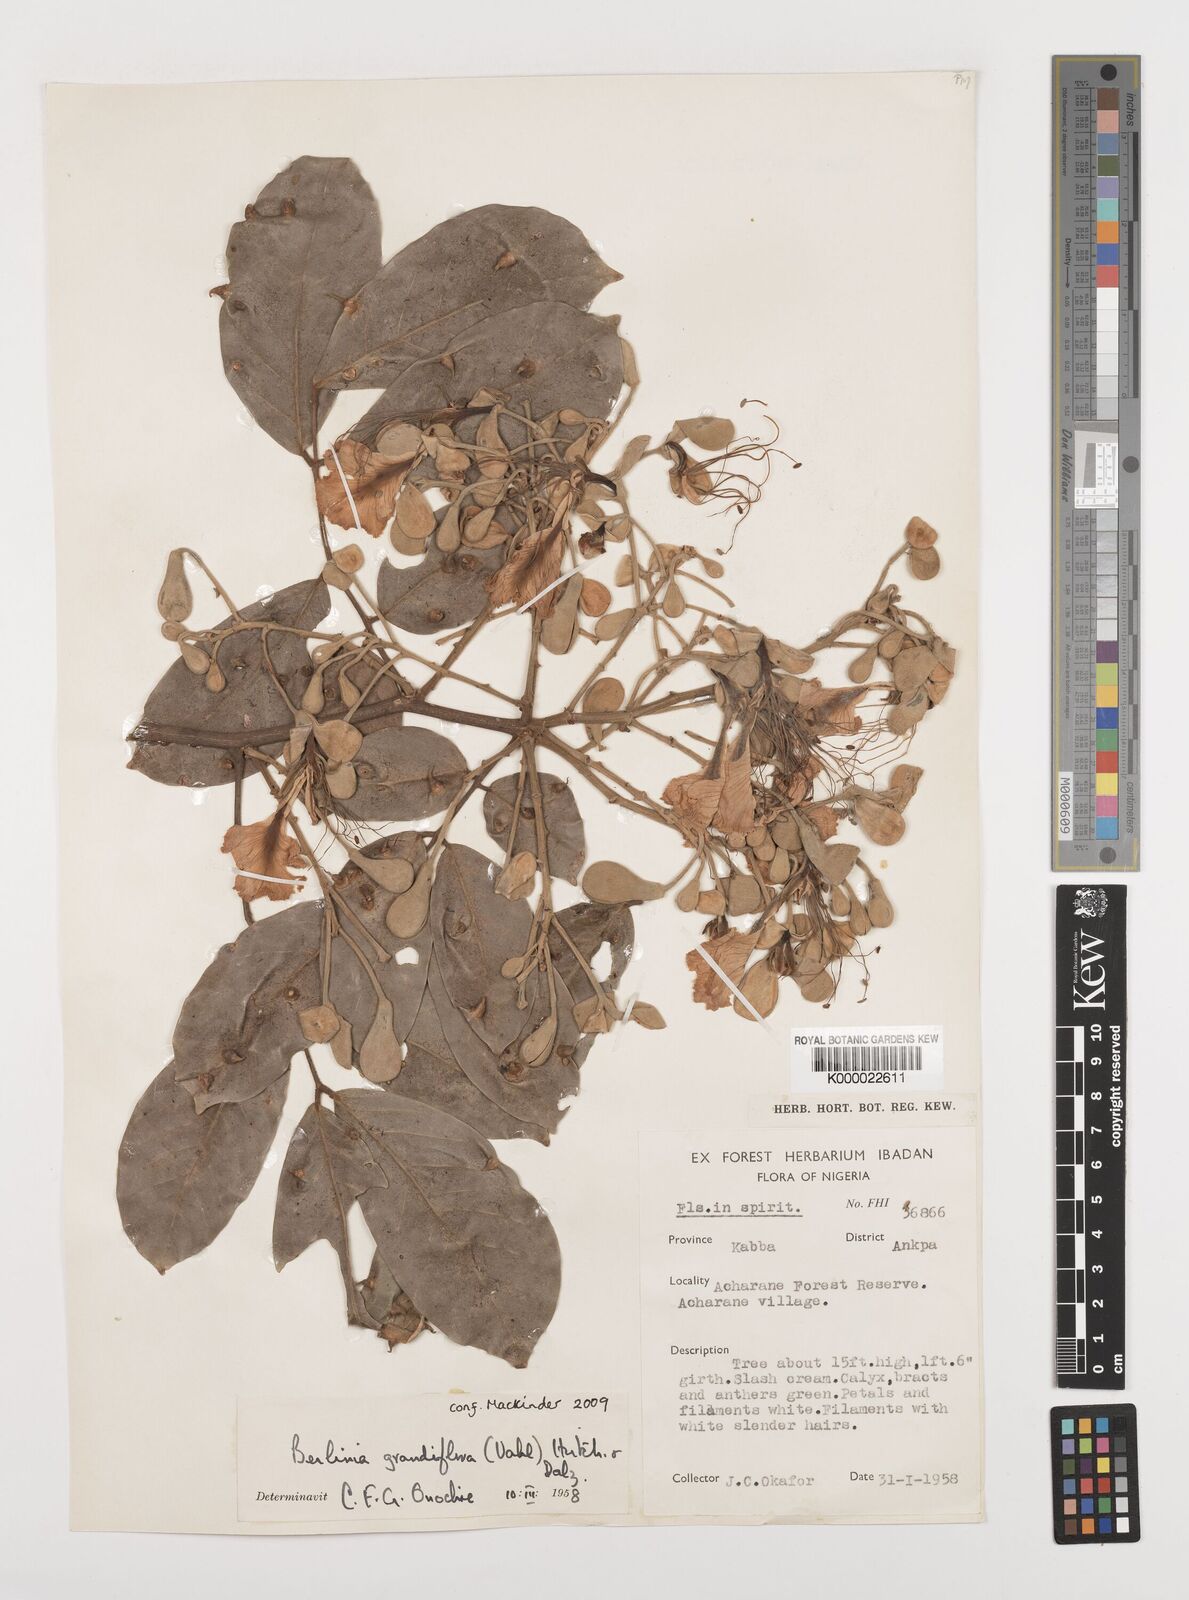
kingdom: Plantae
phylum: Tracheophyta
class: Magnoliopsida
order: Fabales
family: Fabaceae
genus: Berlinia
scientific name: Berlinia grandiflora
